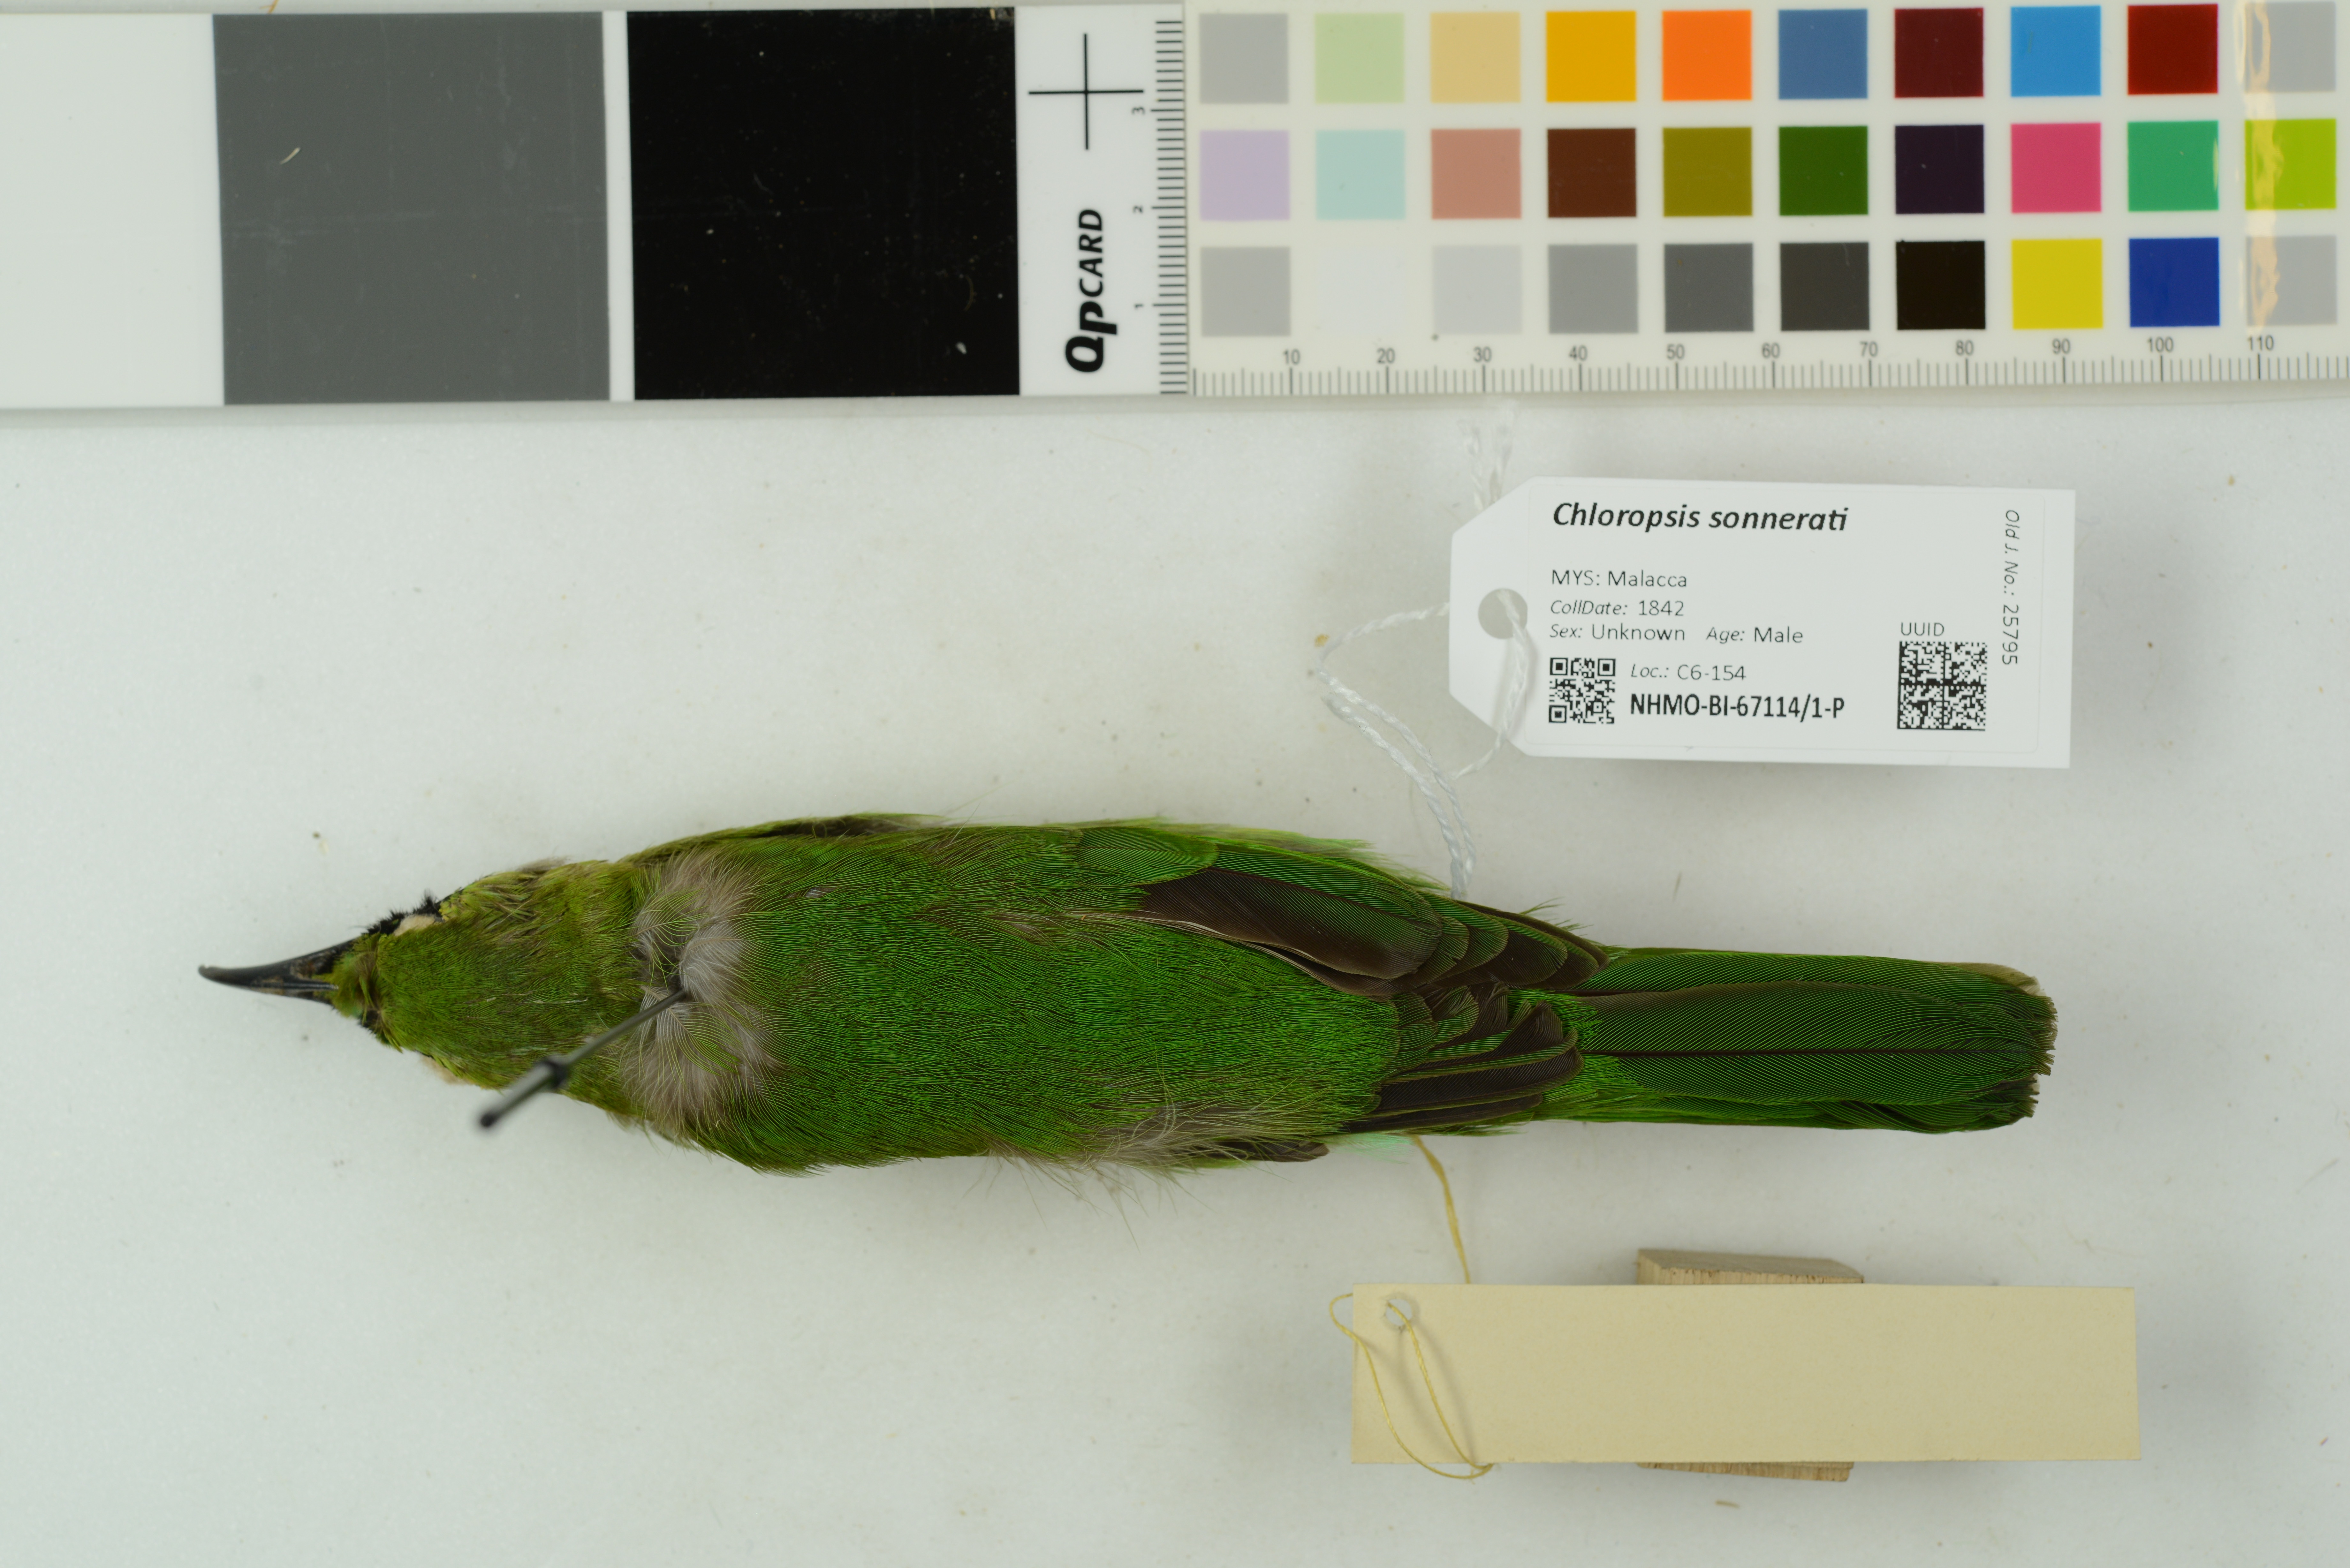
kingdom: Animalia
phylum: Chordata
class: Aves
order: Passeriformes
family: Chloropseidae
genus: Chloropsis
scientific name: Chloropsis sonnerati
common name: Greater green leafbird
